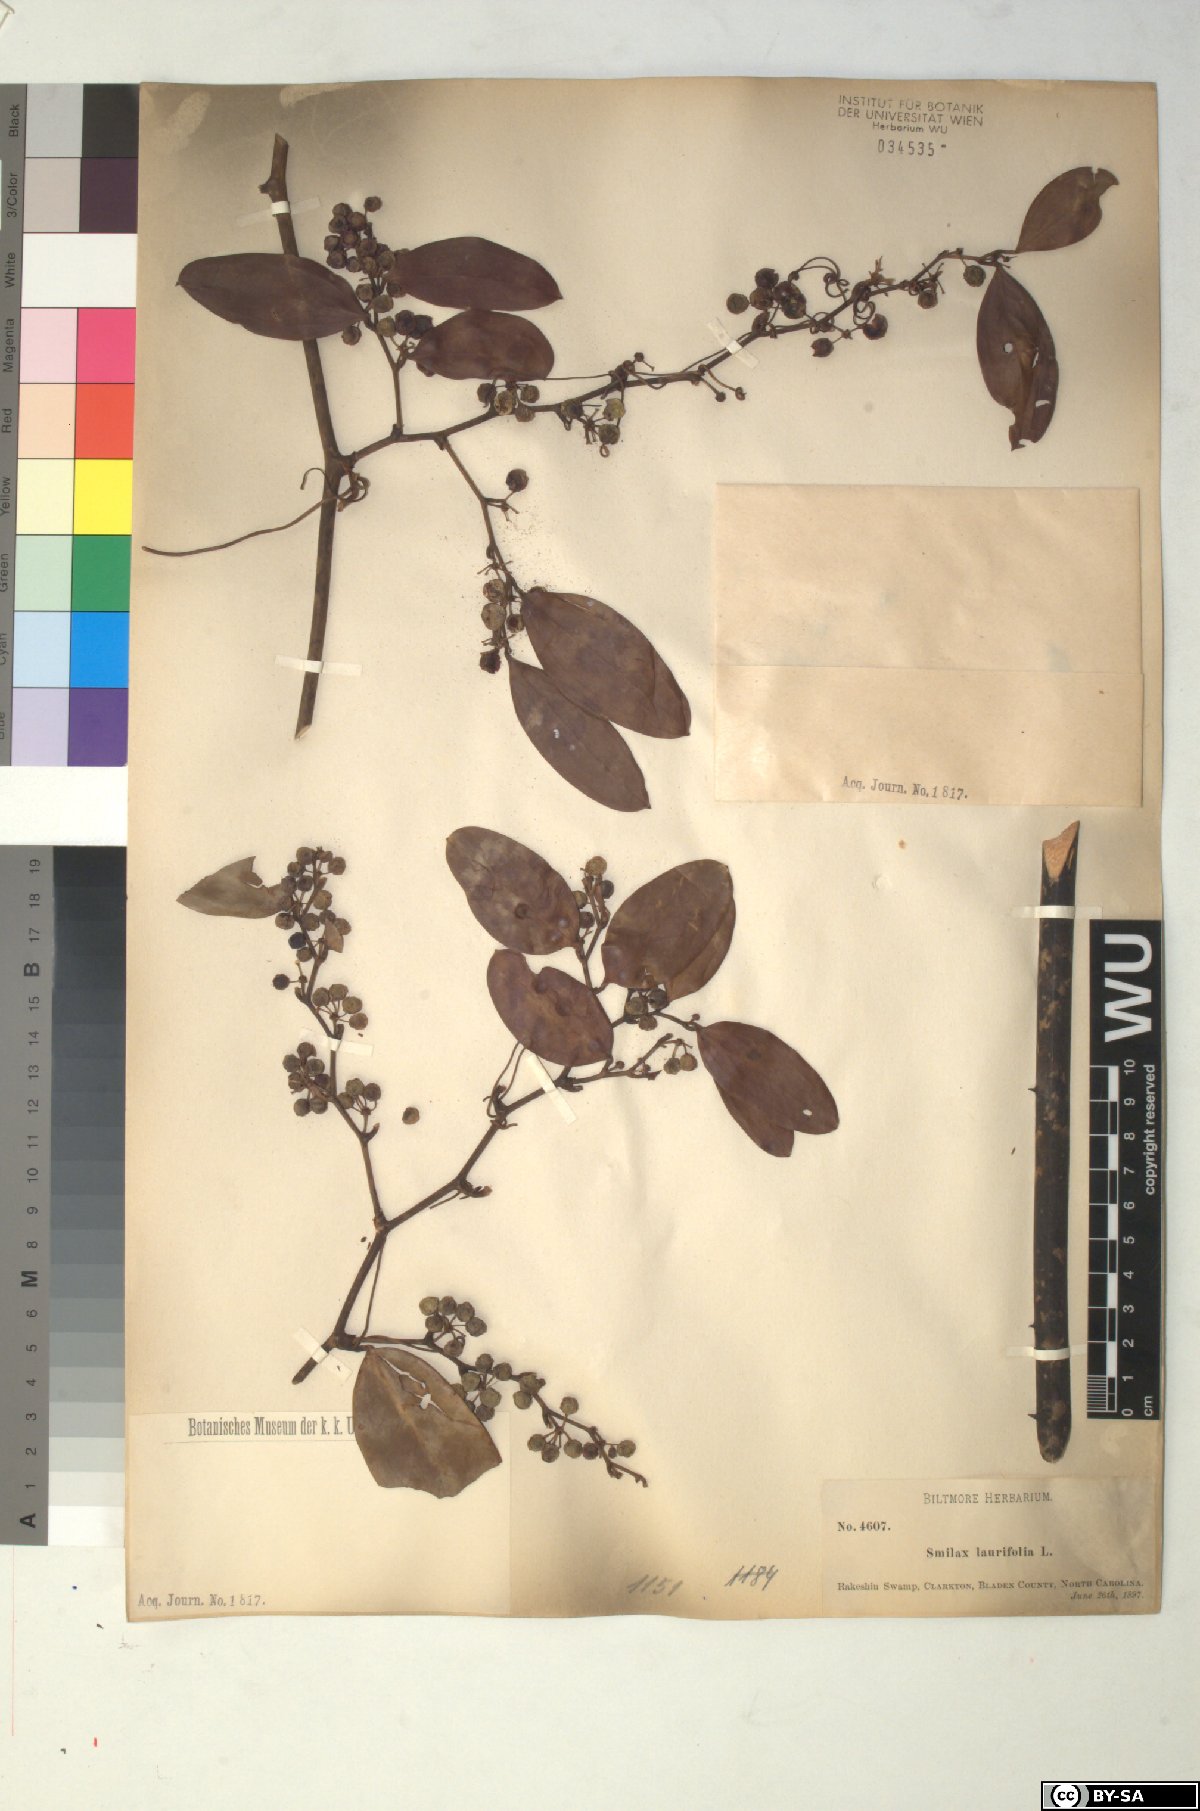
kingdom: Plantae
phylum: Tracheophyta
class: Liliopsida
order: Liliales
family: Smilacaceae
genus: Smilax
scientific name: Smilax laurifolia
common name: Bamboovine
